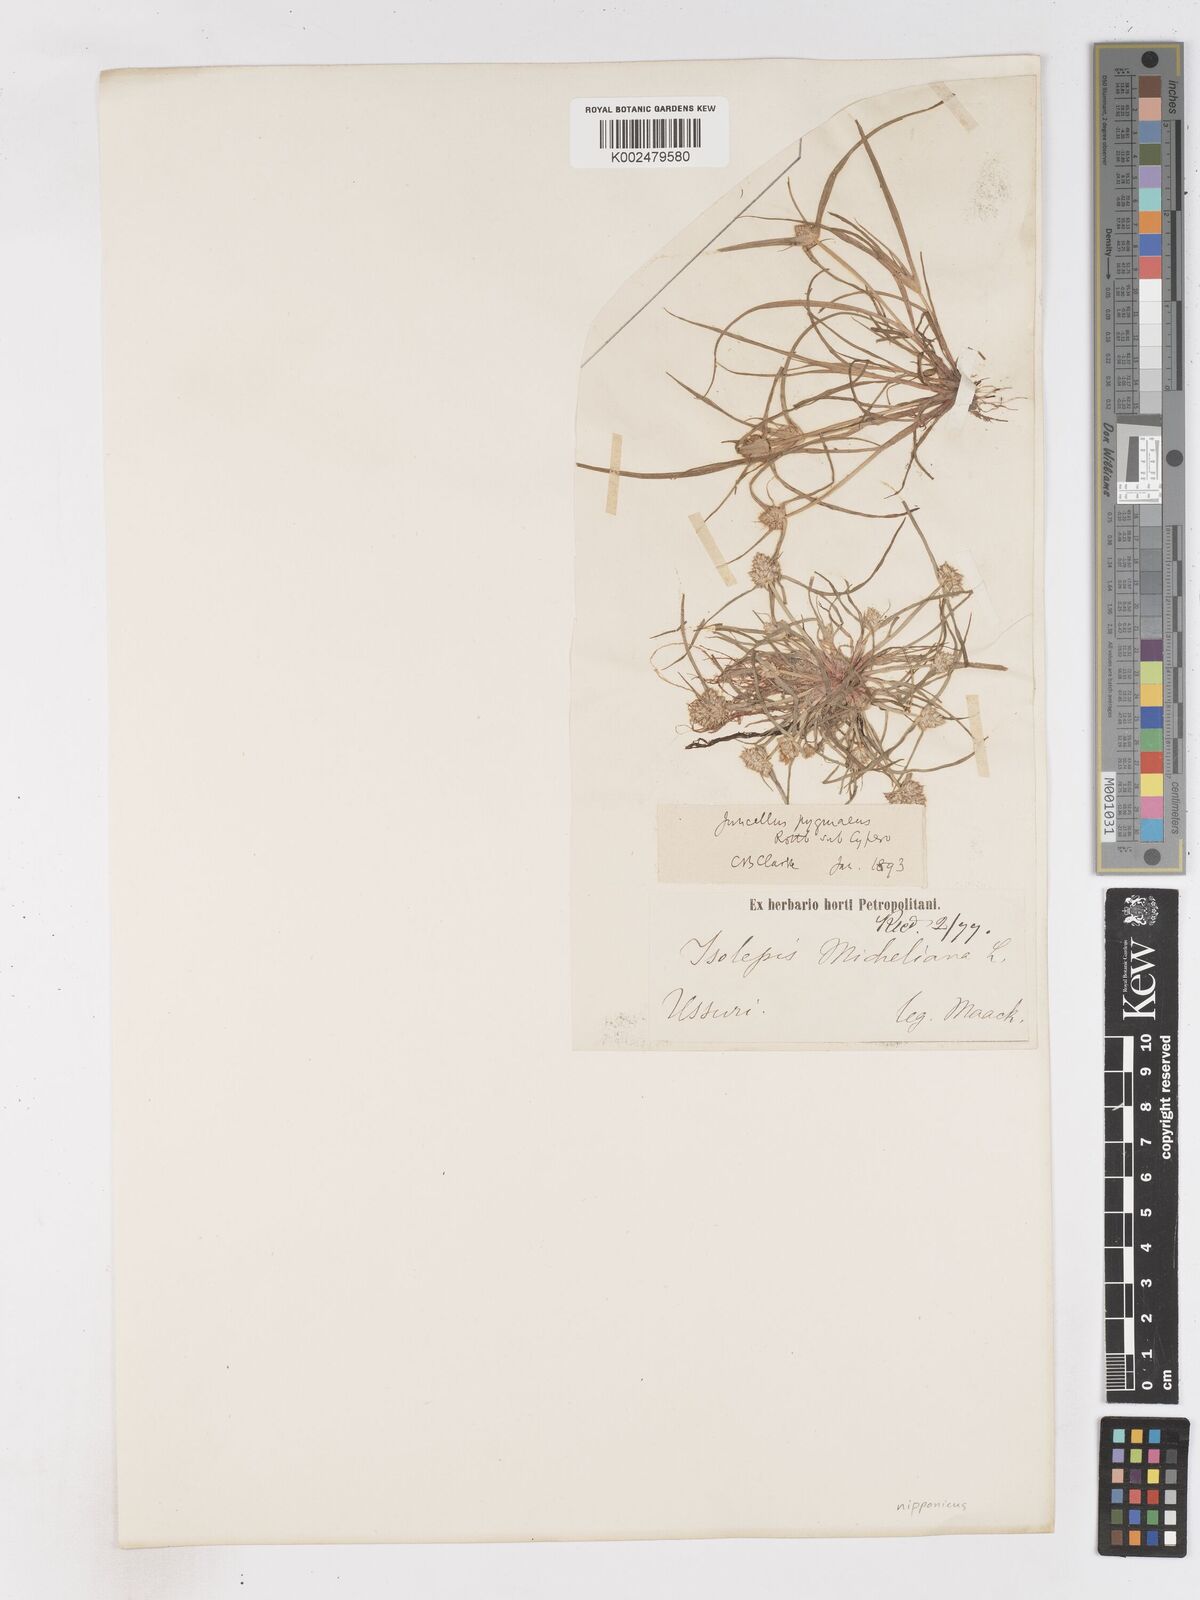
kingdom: Plantae
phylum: Tracheophyta
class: Liliopsida
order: Poales
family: Cyperaceae
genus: Cyperus
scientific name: Cyperus michelianus
